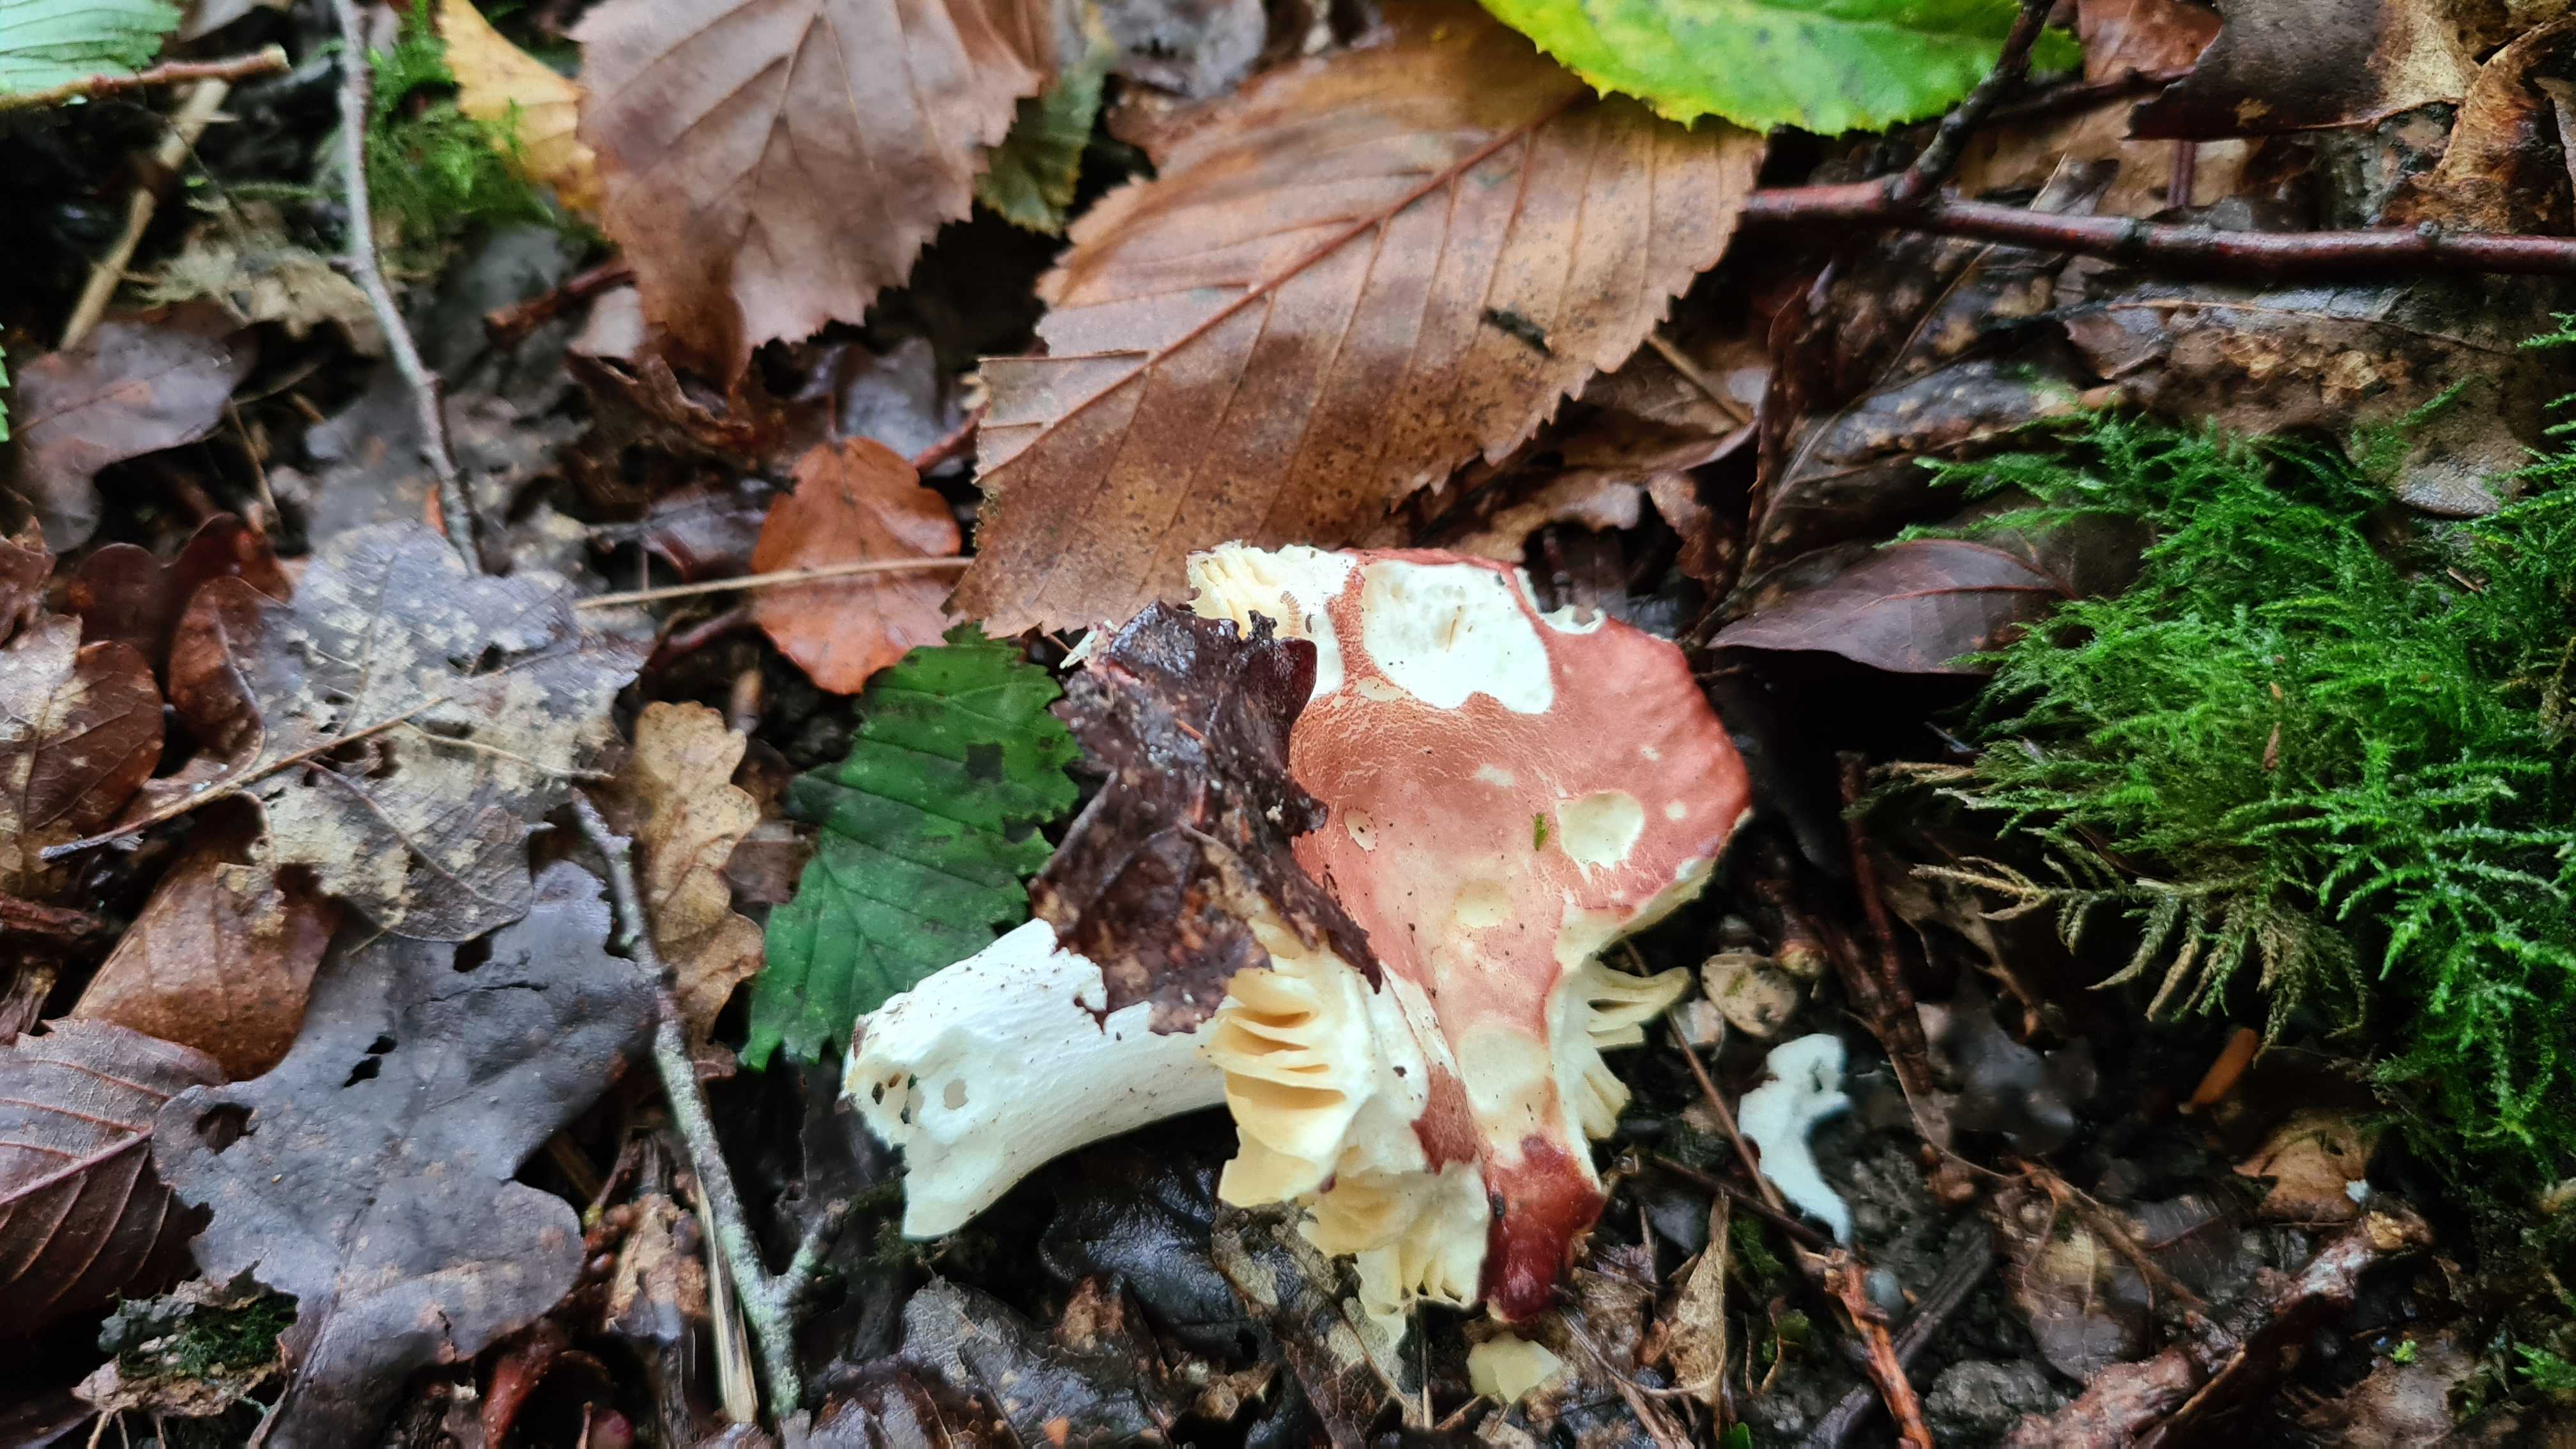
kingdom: Fungi
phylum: Basidiomycota
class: Agaricomycetes
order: Russulales
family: Russulaceae
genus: Russula
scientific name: Russula
